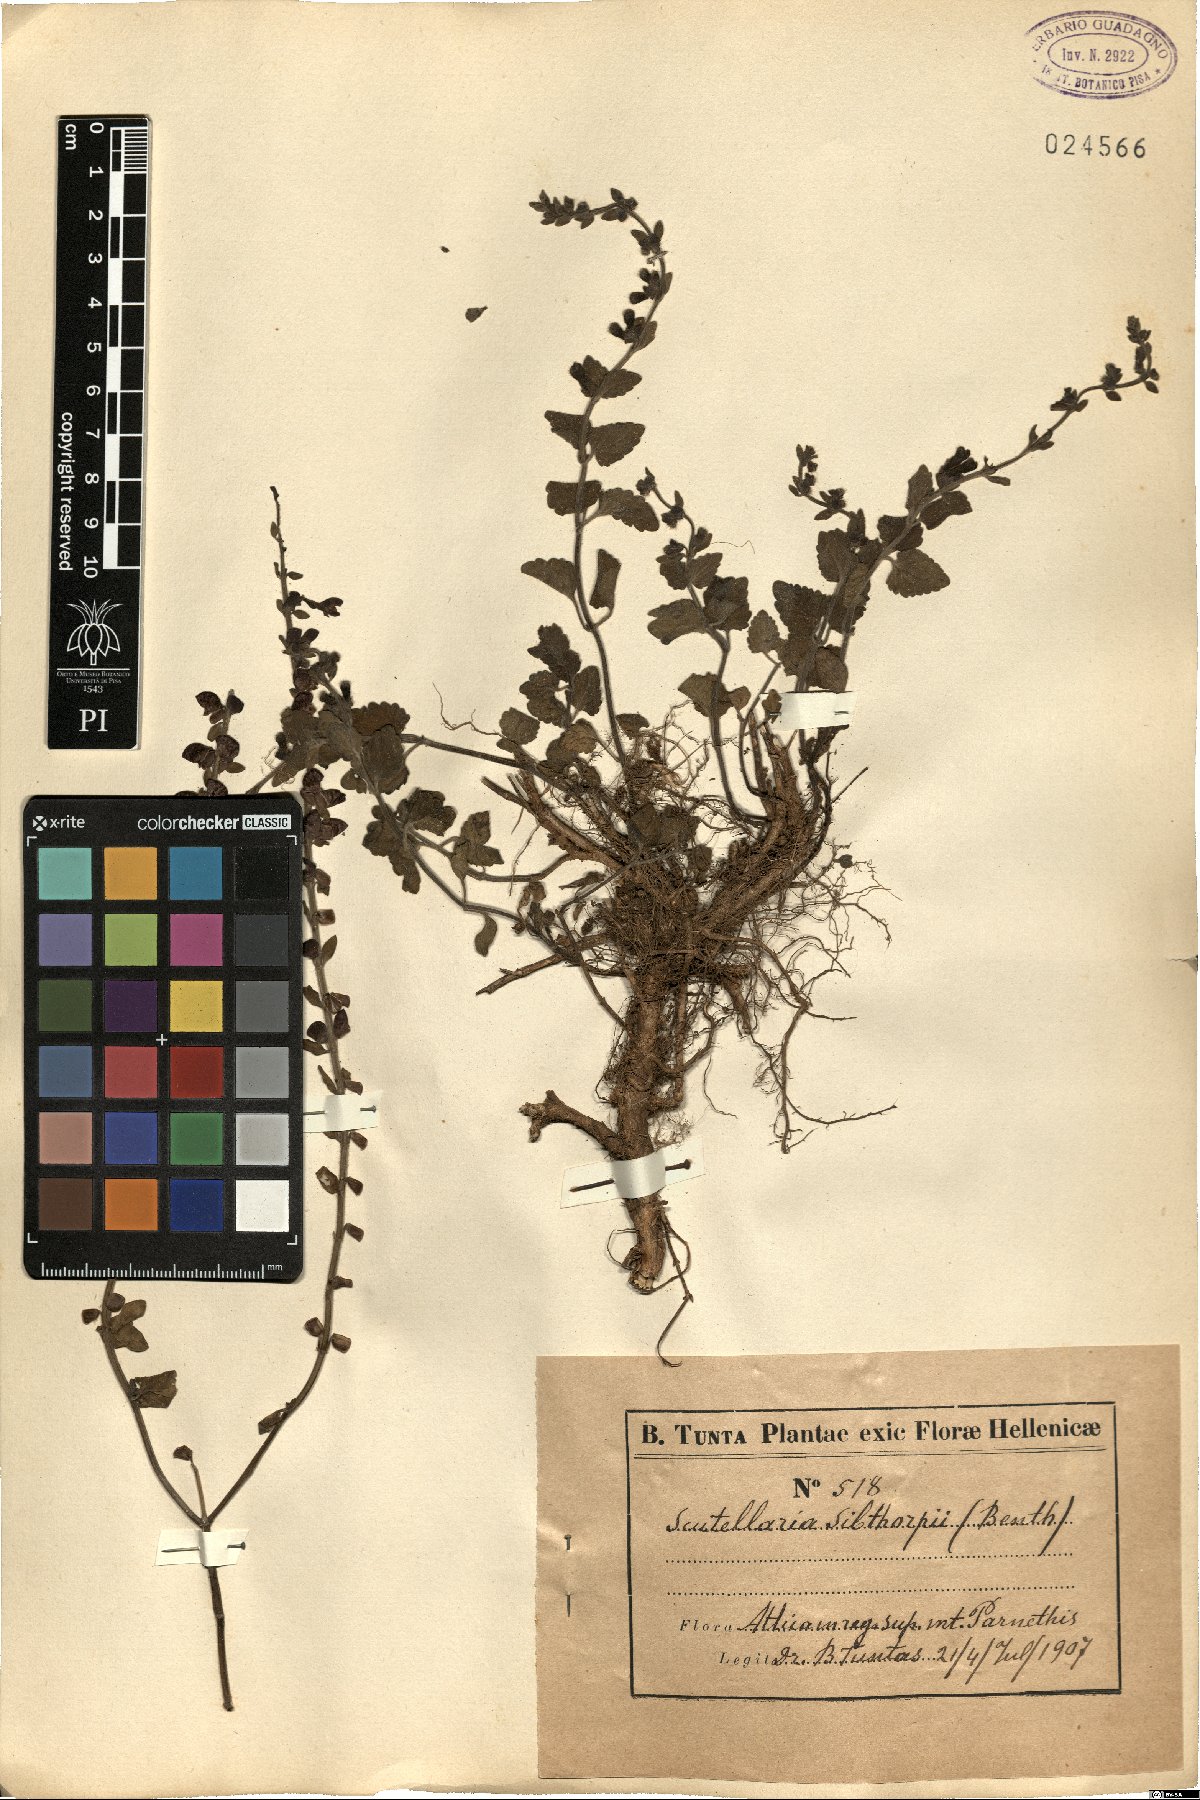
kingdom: Plantae
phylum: Tracheophyta
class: Magnoliopsida
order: Lamiales
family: Lamiaceae
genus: Scutellaria
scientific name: Scutellaria sibthorpii
